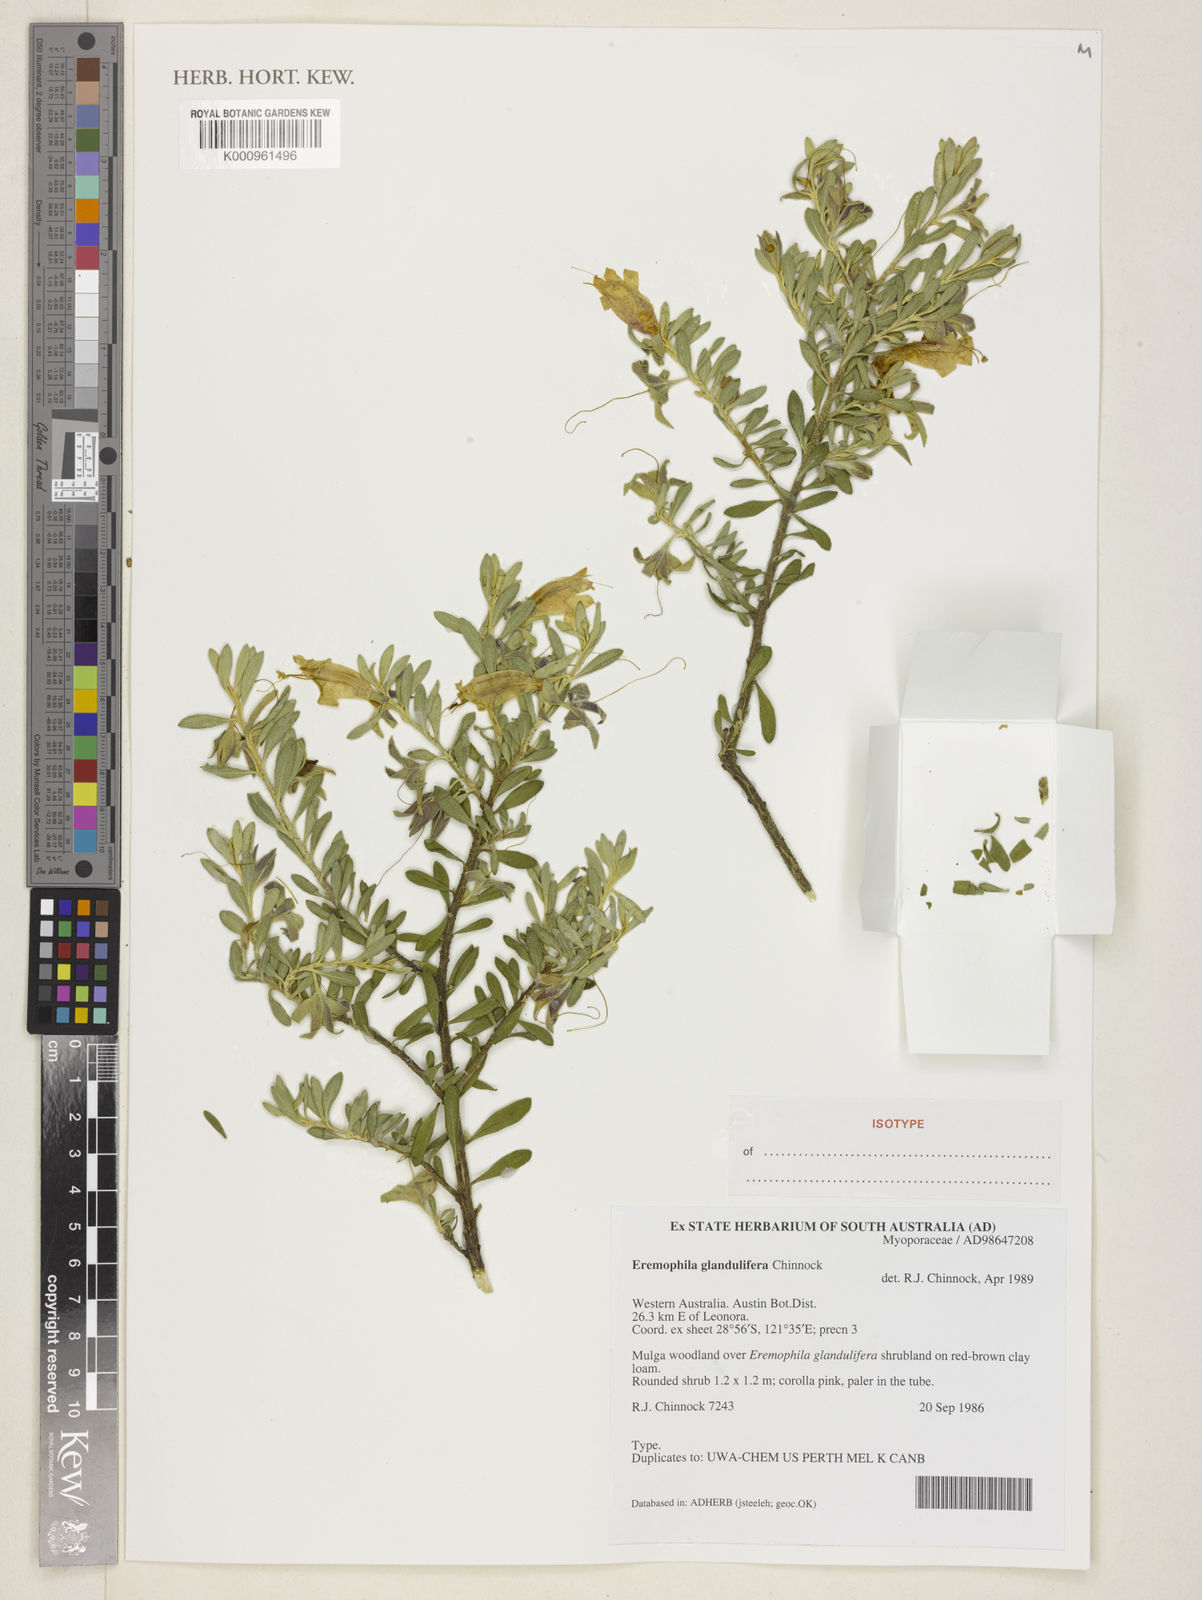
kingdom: Plantae
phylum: Tracheophyta
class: Magnoliopsida
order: Lamiales
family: Scrophulariaceae
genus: Eremophila
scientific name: Eremophila glandulifera
